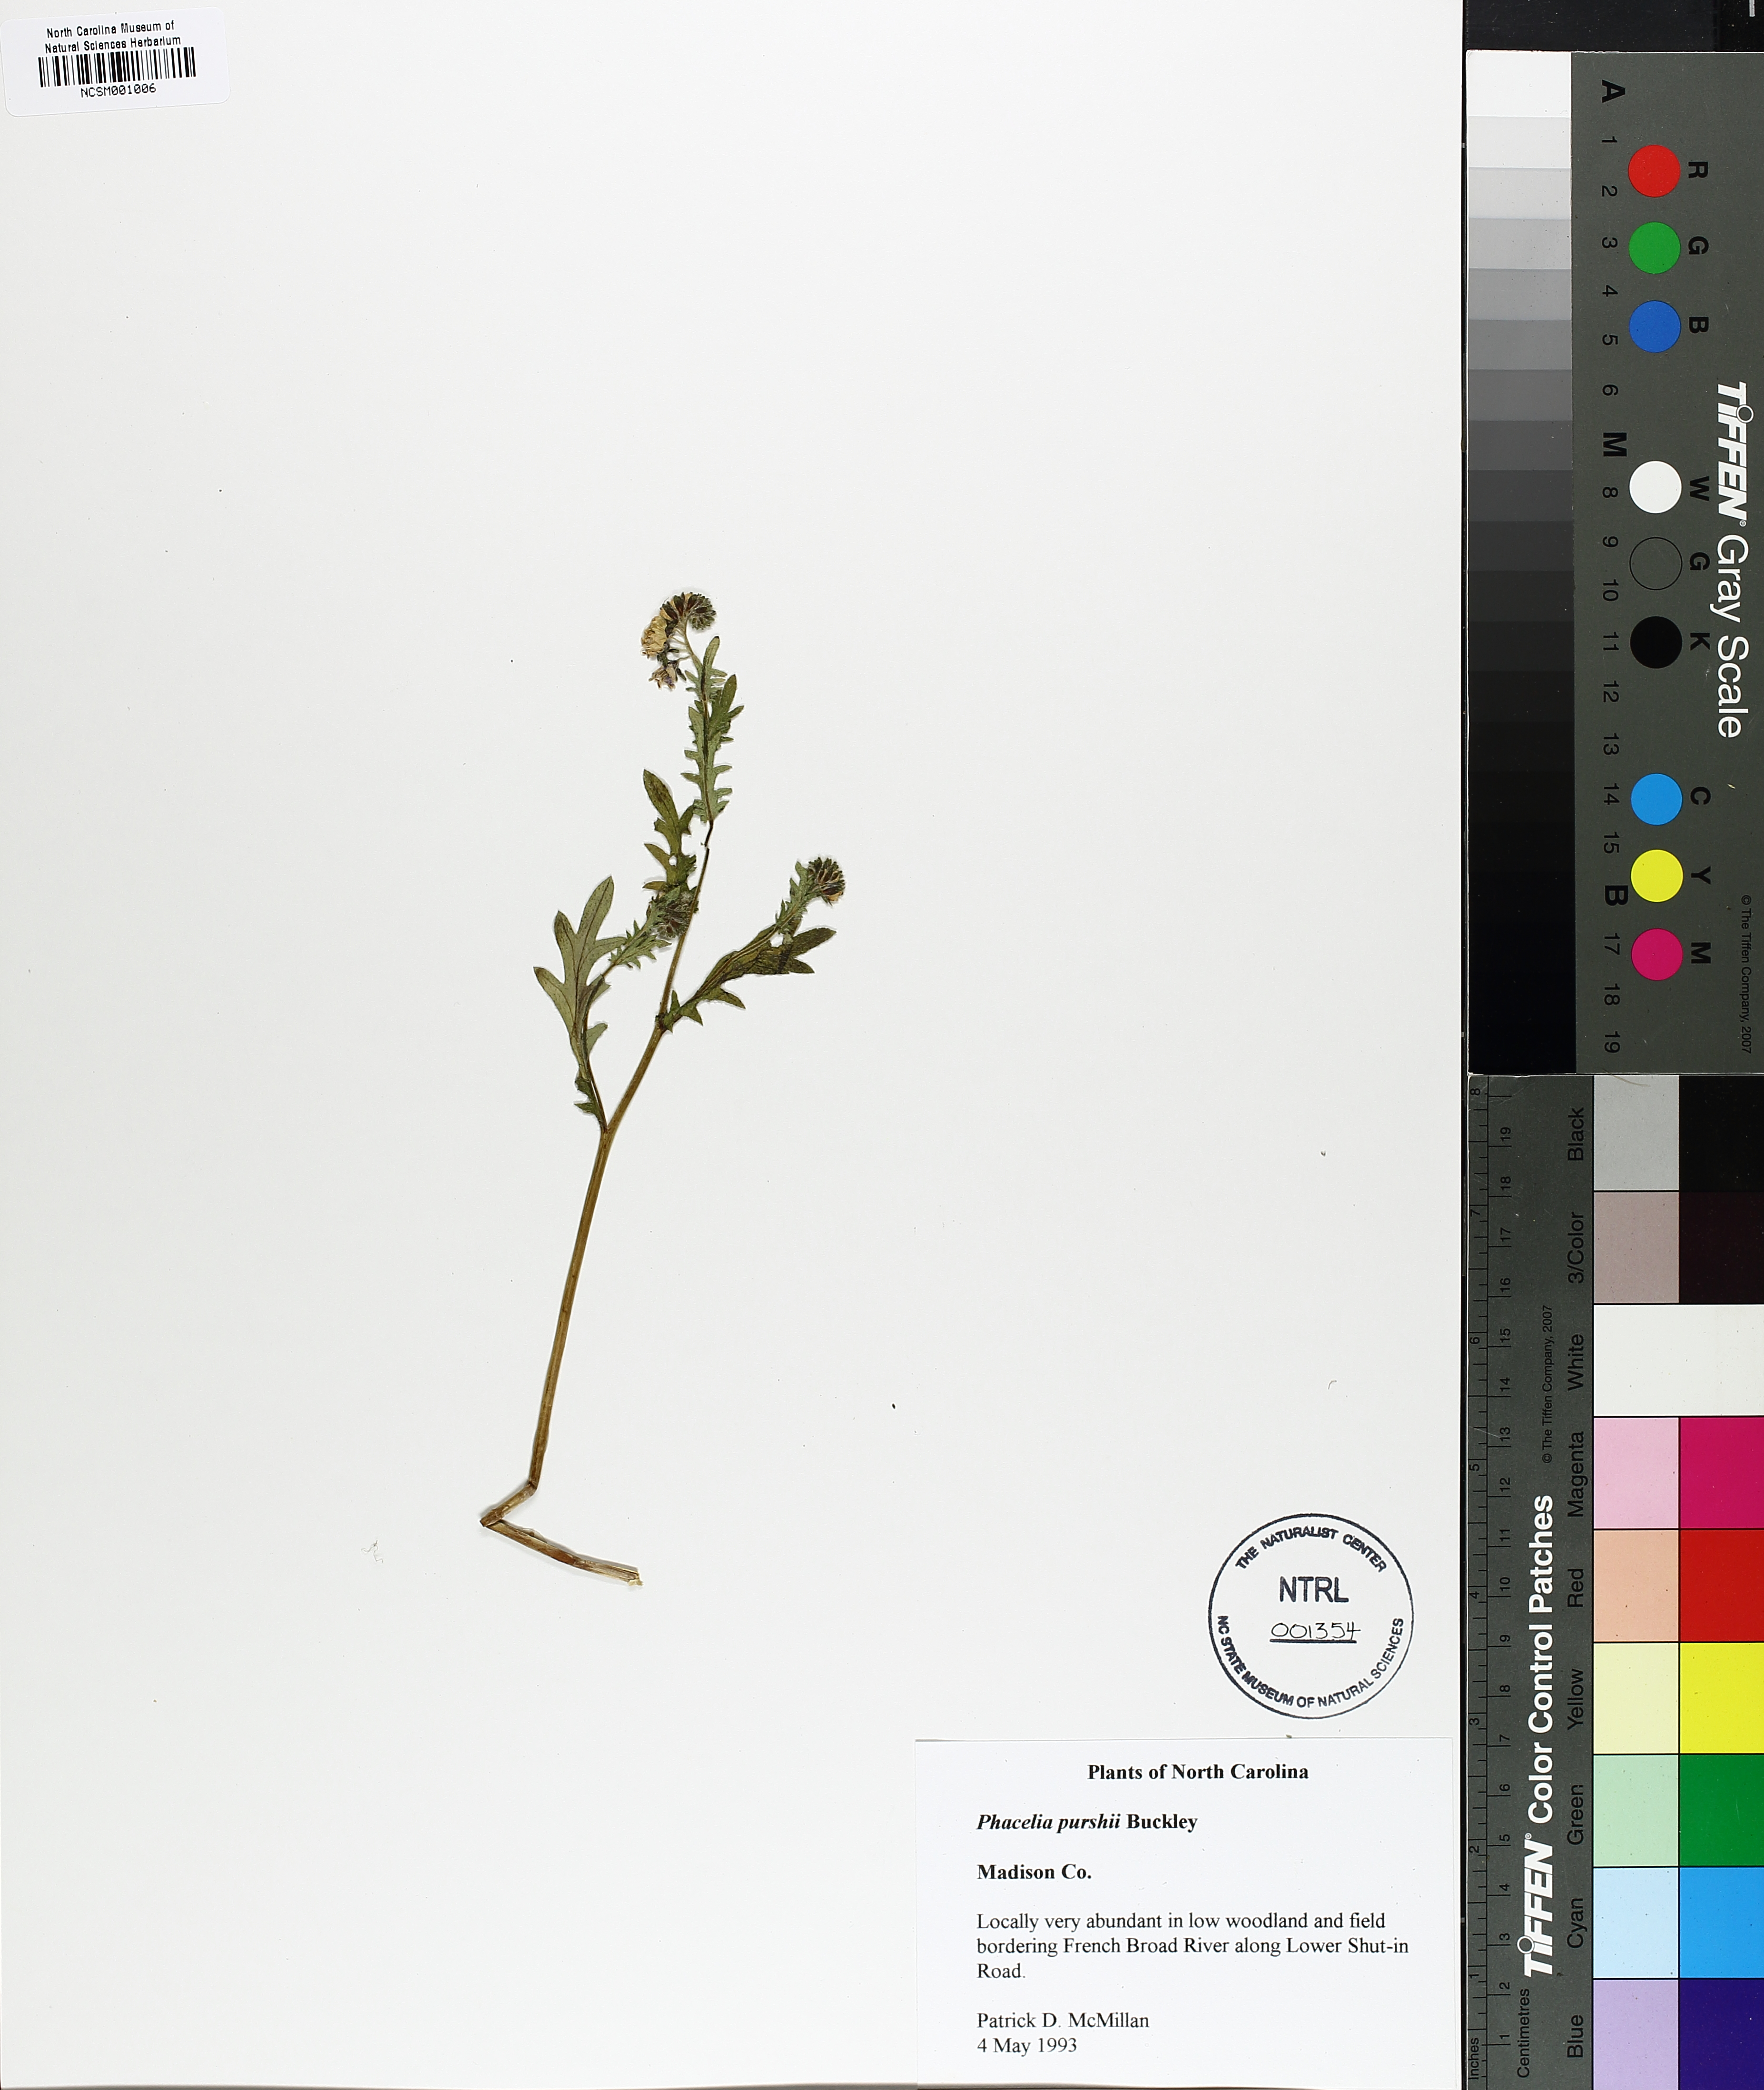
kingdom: Plantae
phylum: Tracheophyta
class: Magnoliopsida
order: Boraginales
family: Hydrophyllaceae
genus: Phacelia
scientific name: Phacelia purshii
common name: Miami-mist
